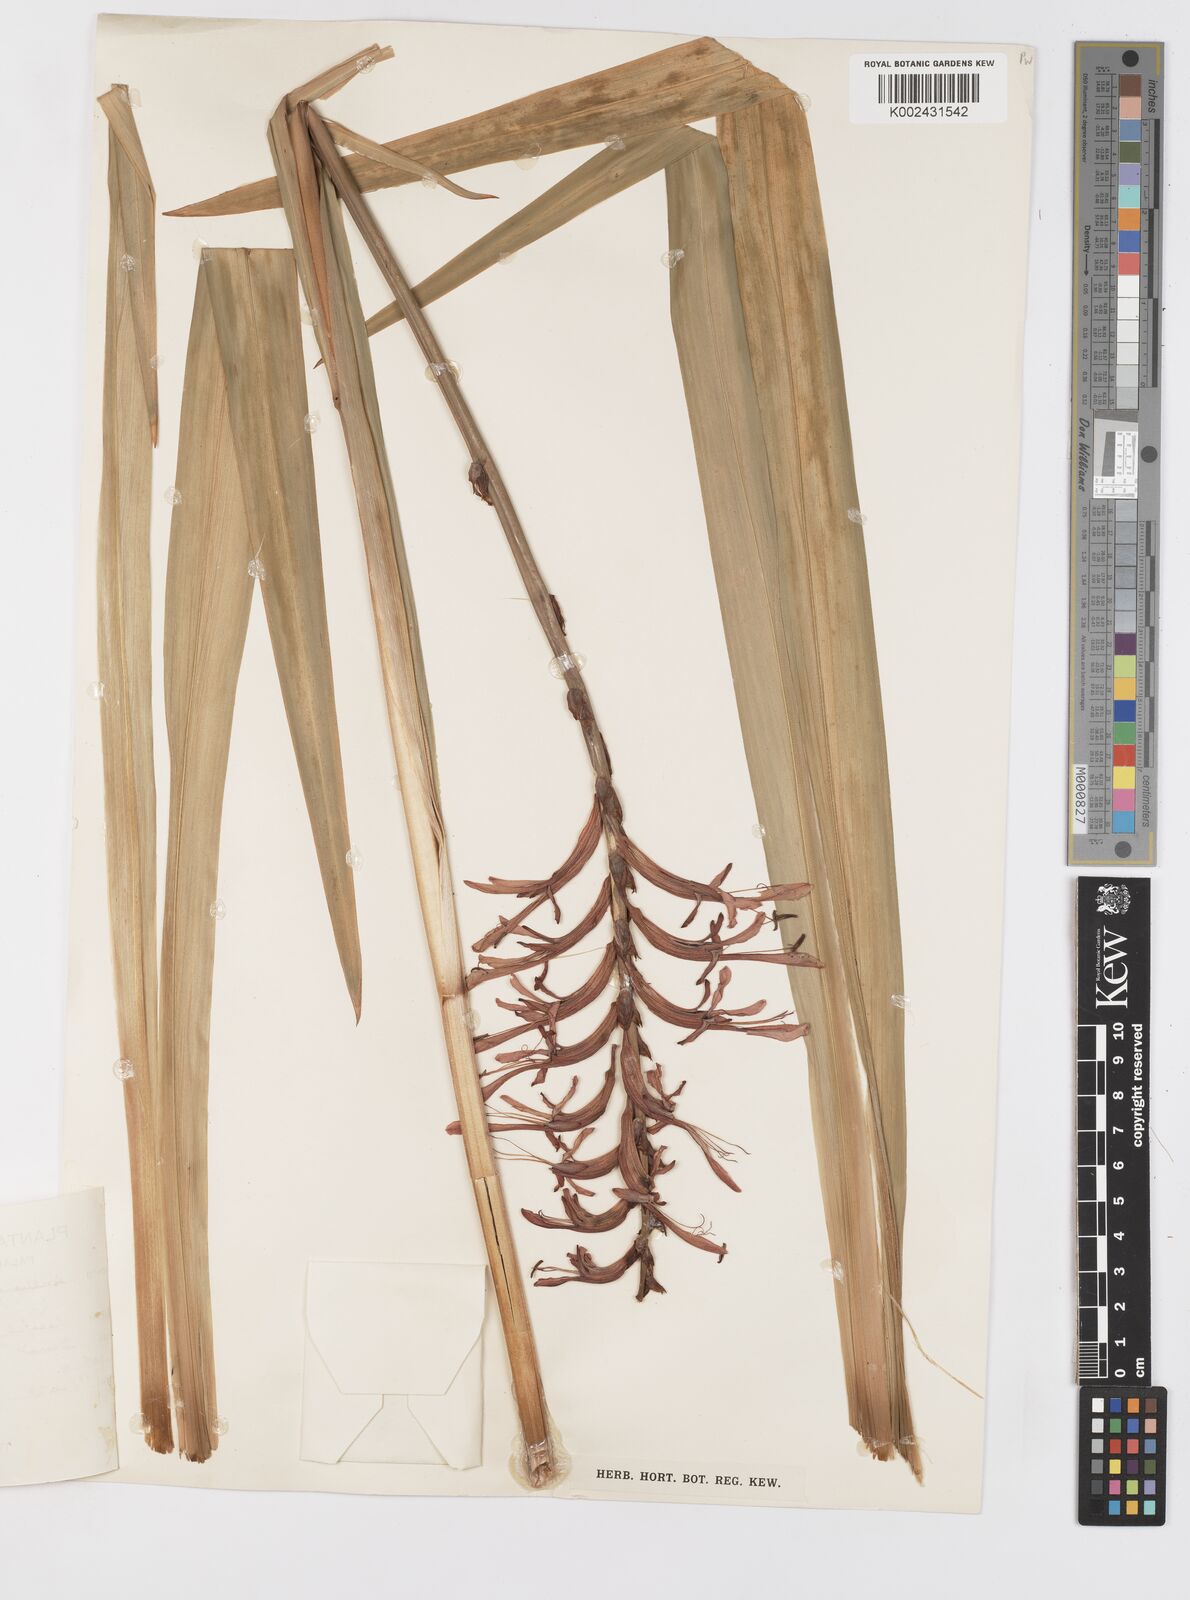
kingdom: Plantae
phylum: Tracheophyta
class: Liliopsida
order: Asparagales
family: Iridaceae
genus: Tritoniopsis
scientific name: Tritoniopsis caffra
